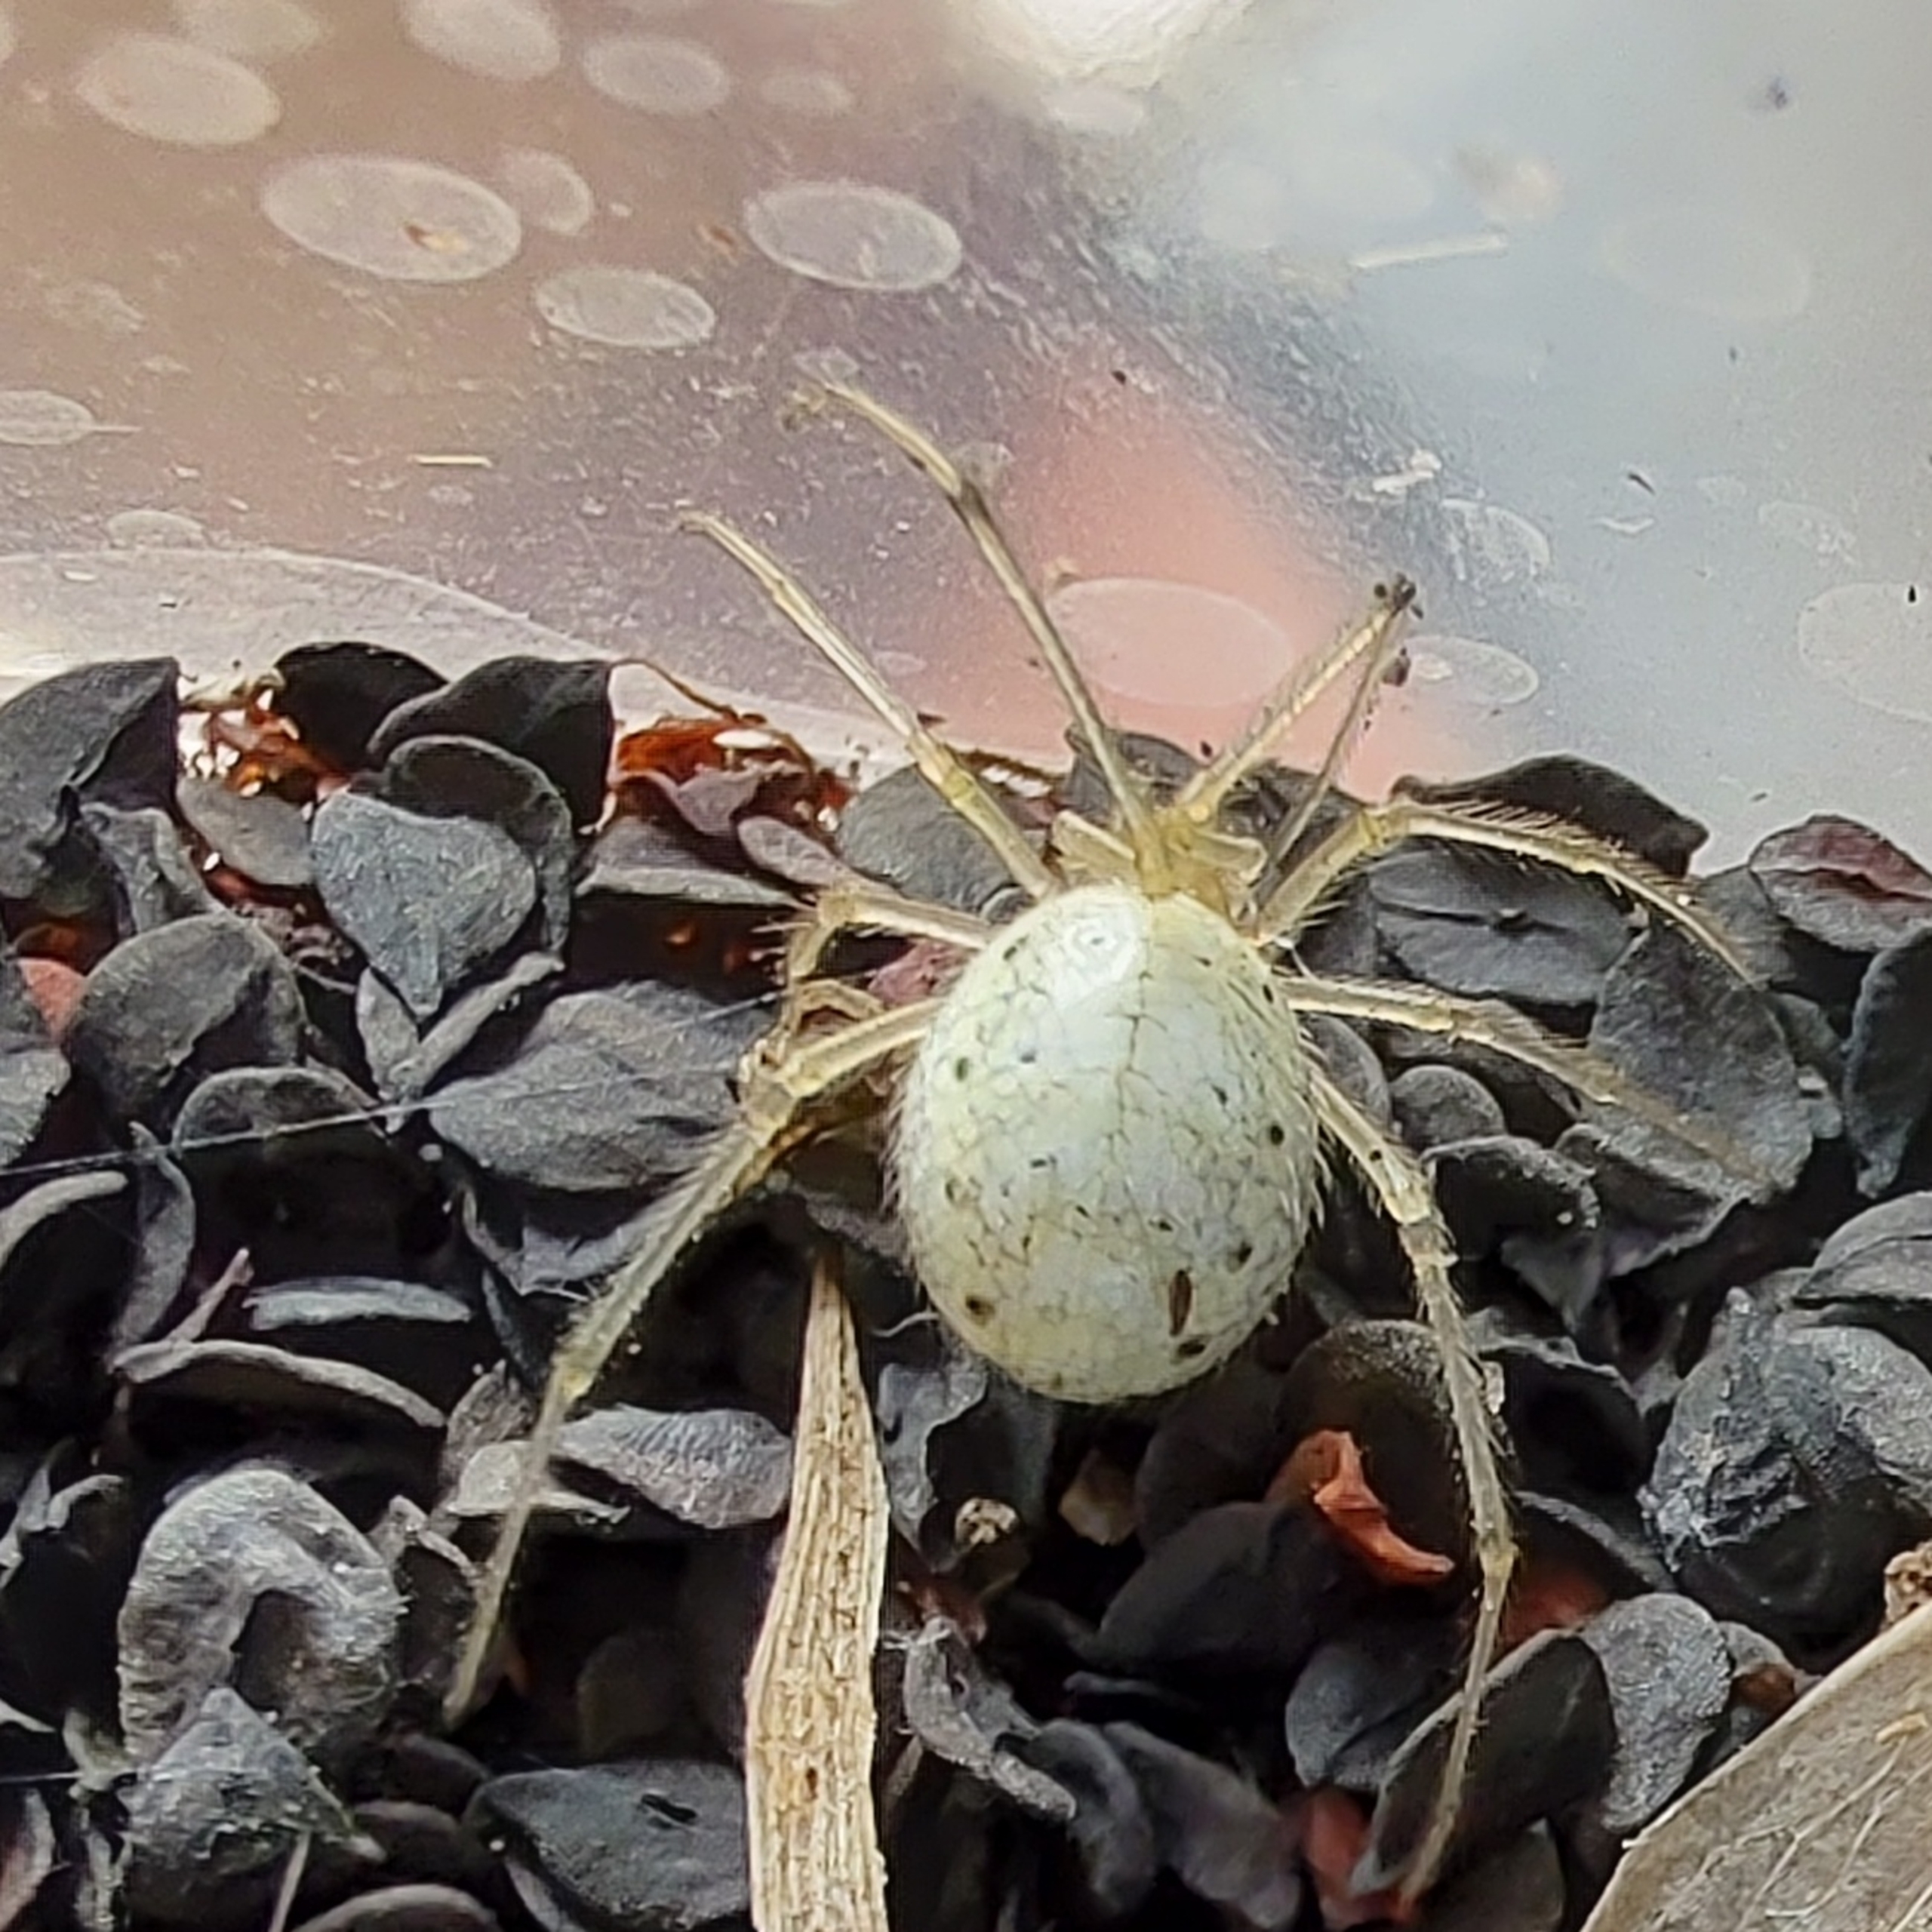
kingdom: Animalia
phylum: Arthropoda
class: Arachnida
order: Araneae
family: Theridiidae
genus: Enoplognatha
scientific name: Enoplognatha
